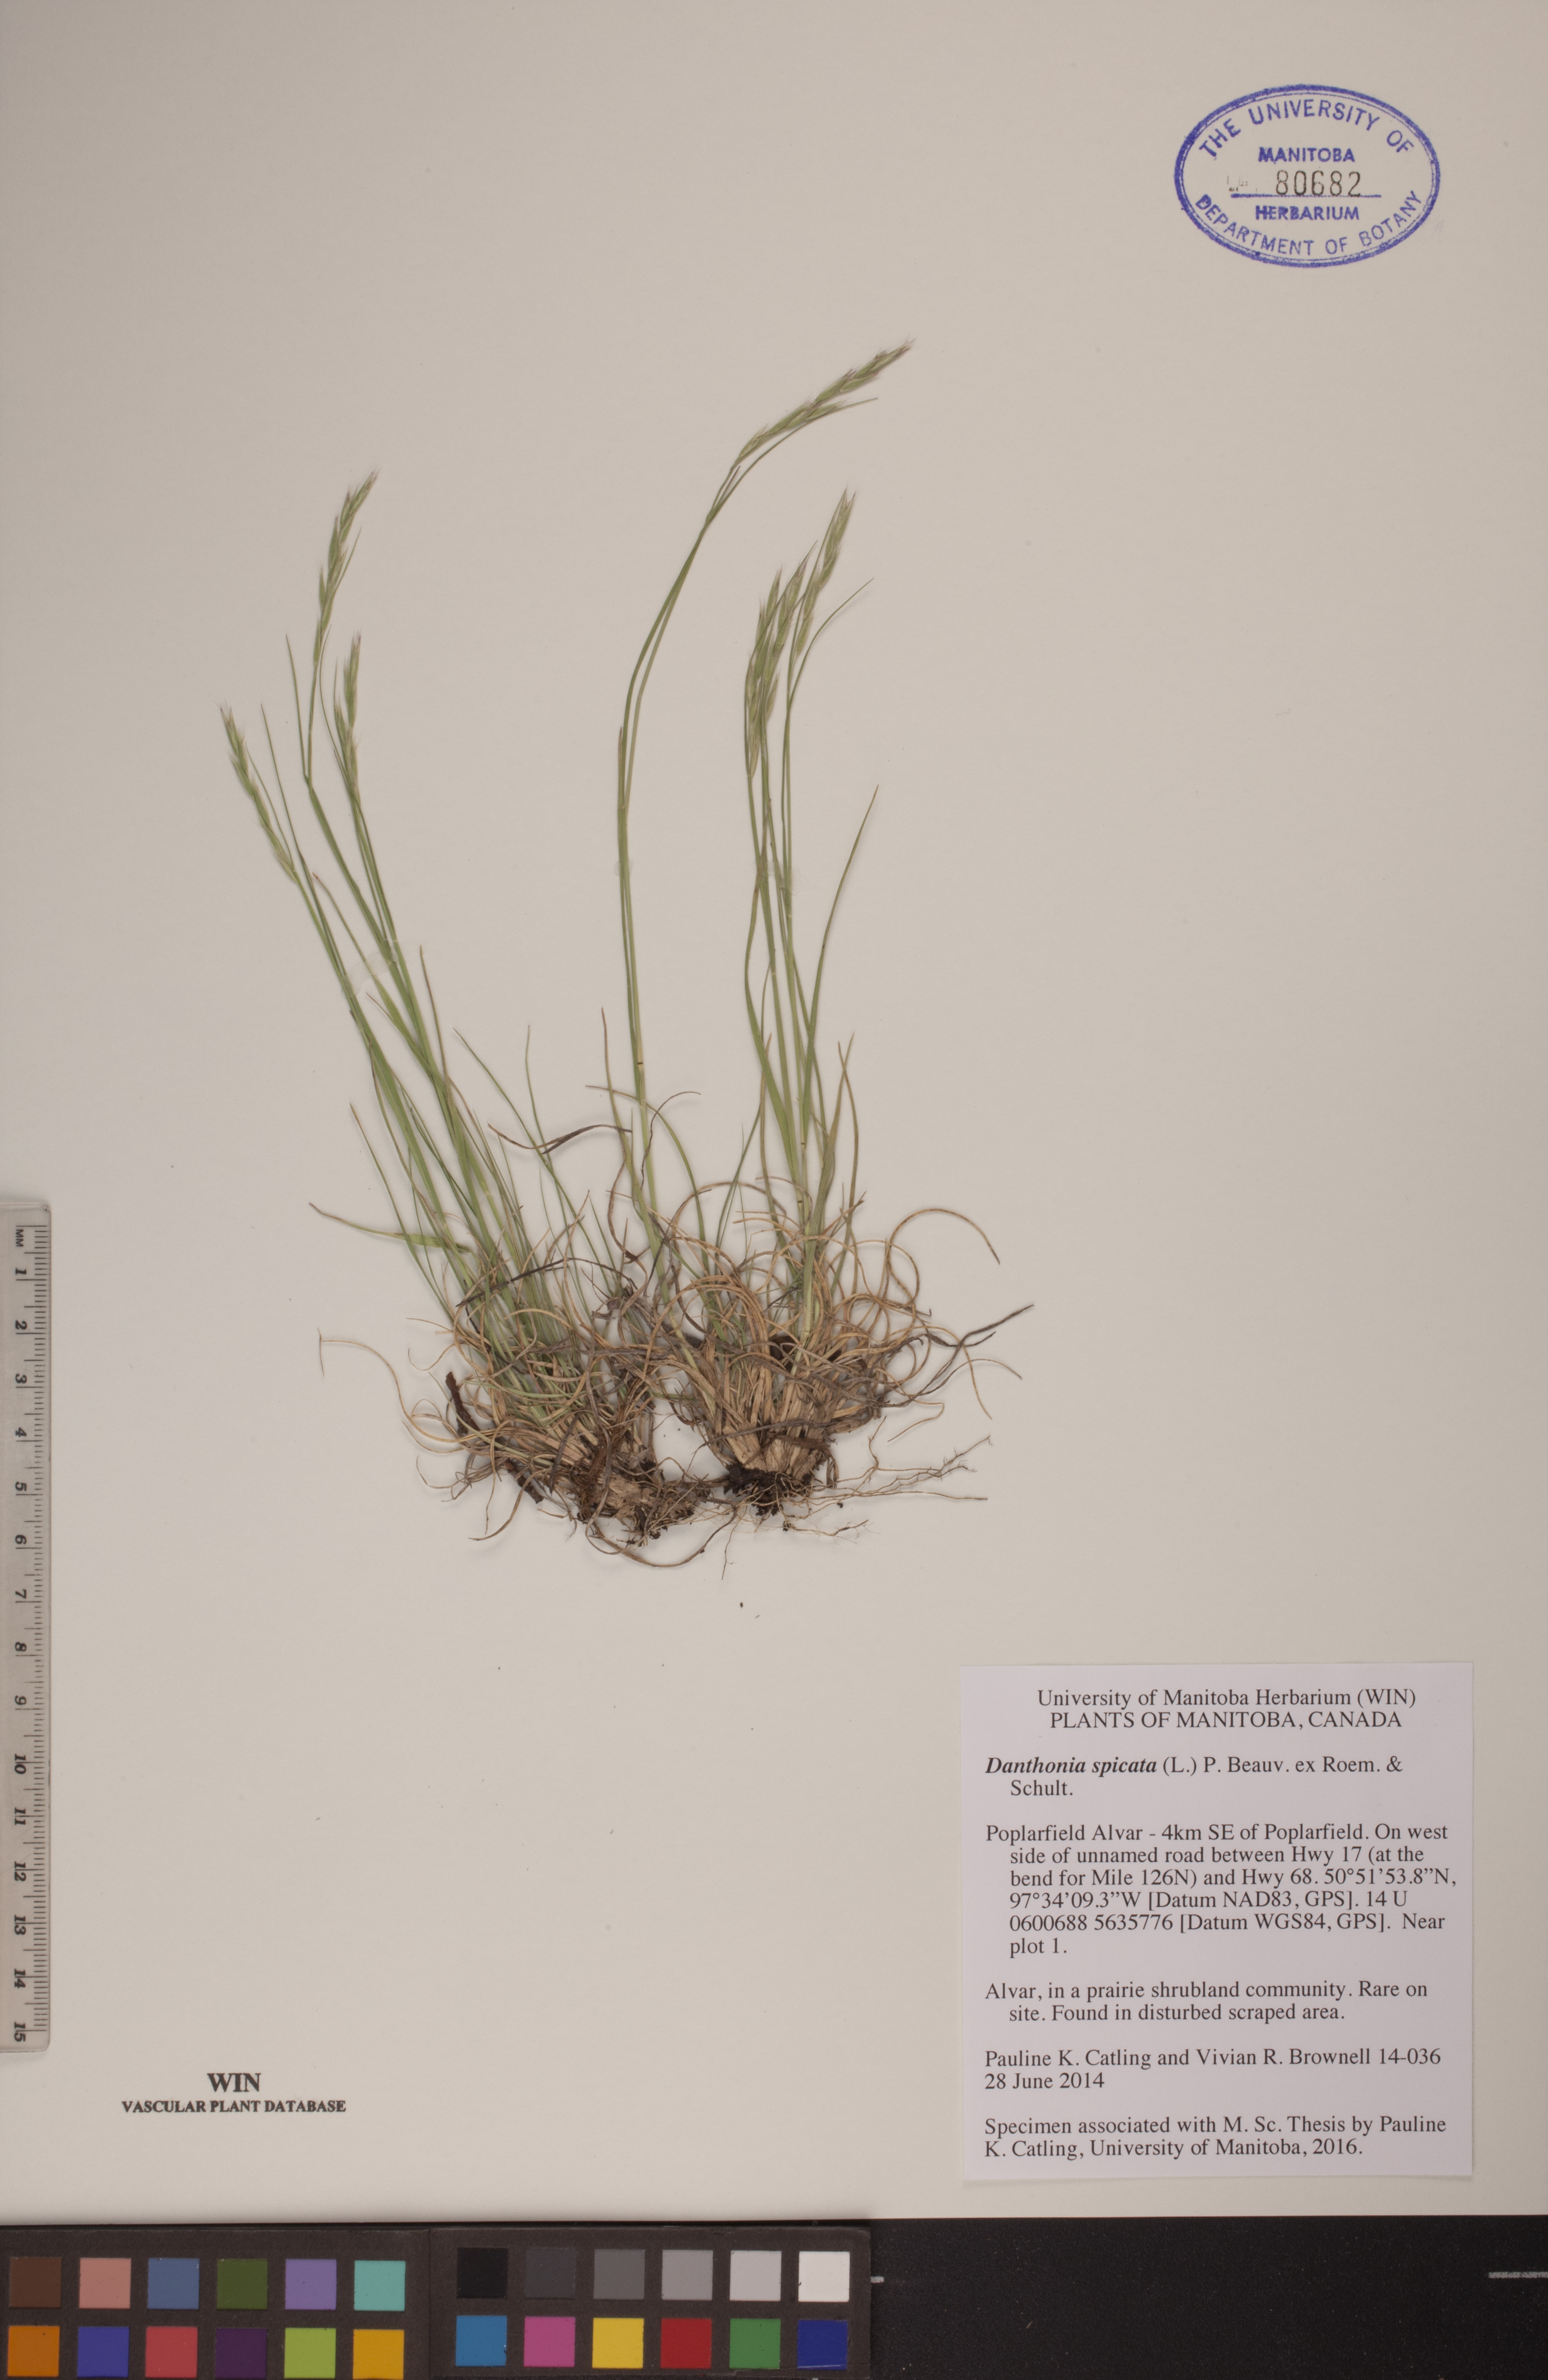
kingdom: Plantae
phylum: Tracheophyta
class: Liliopsida
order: Poales
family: Poaceae
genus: Danthonia
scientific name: Danthonia spicata
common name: Common wild oatgrass
